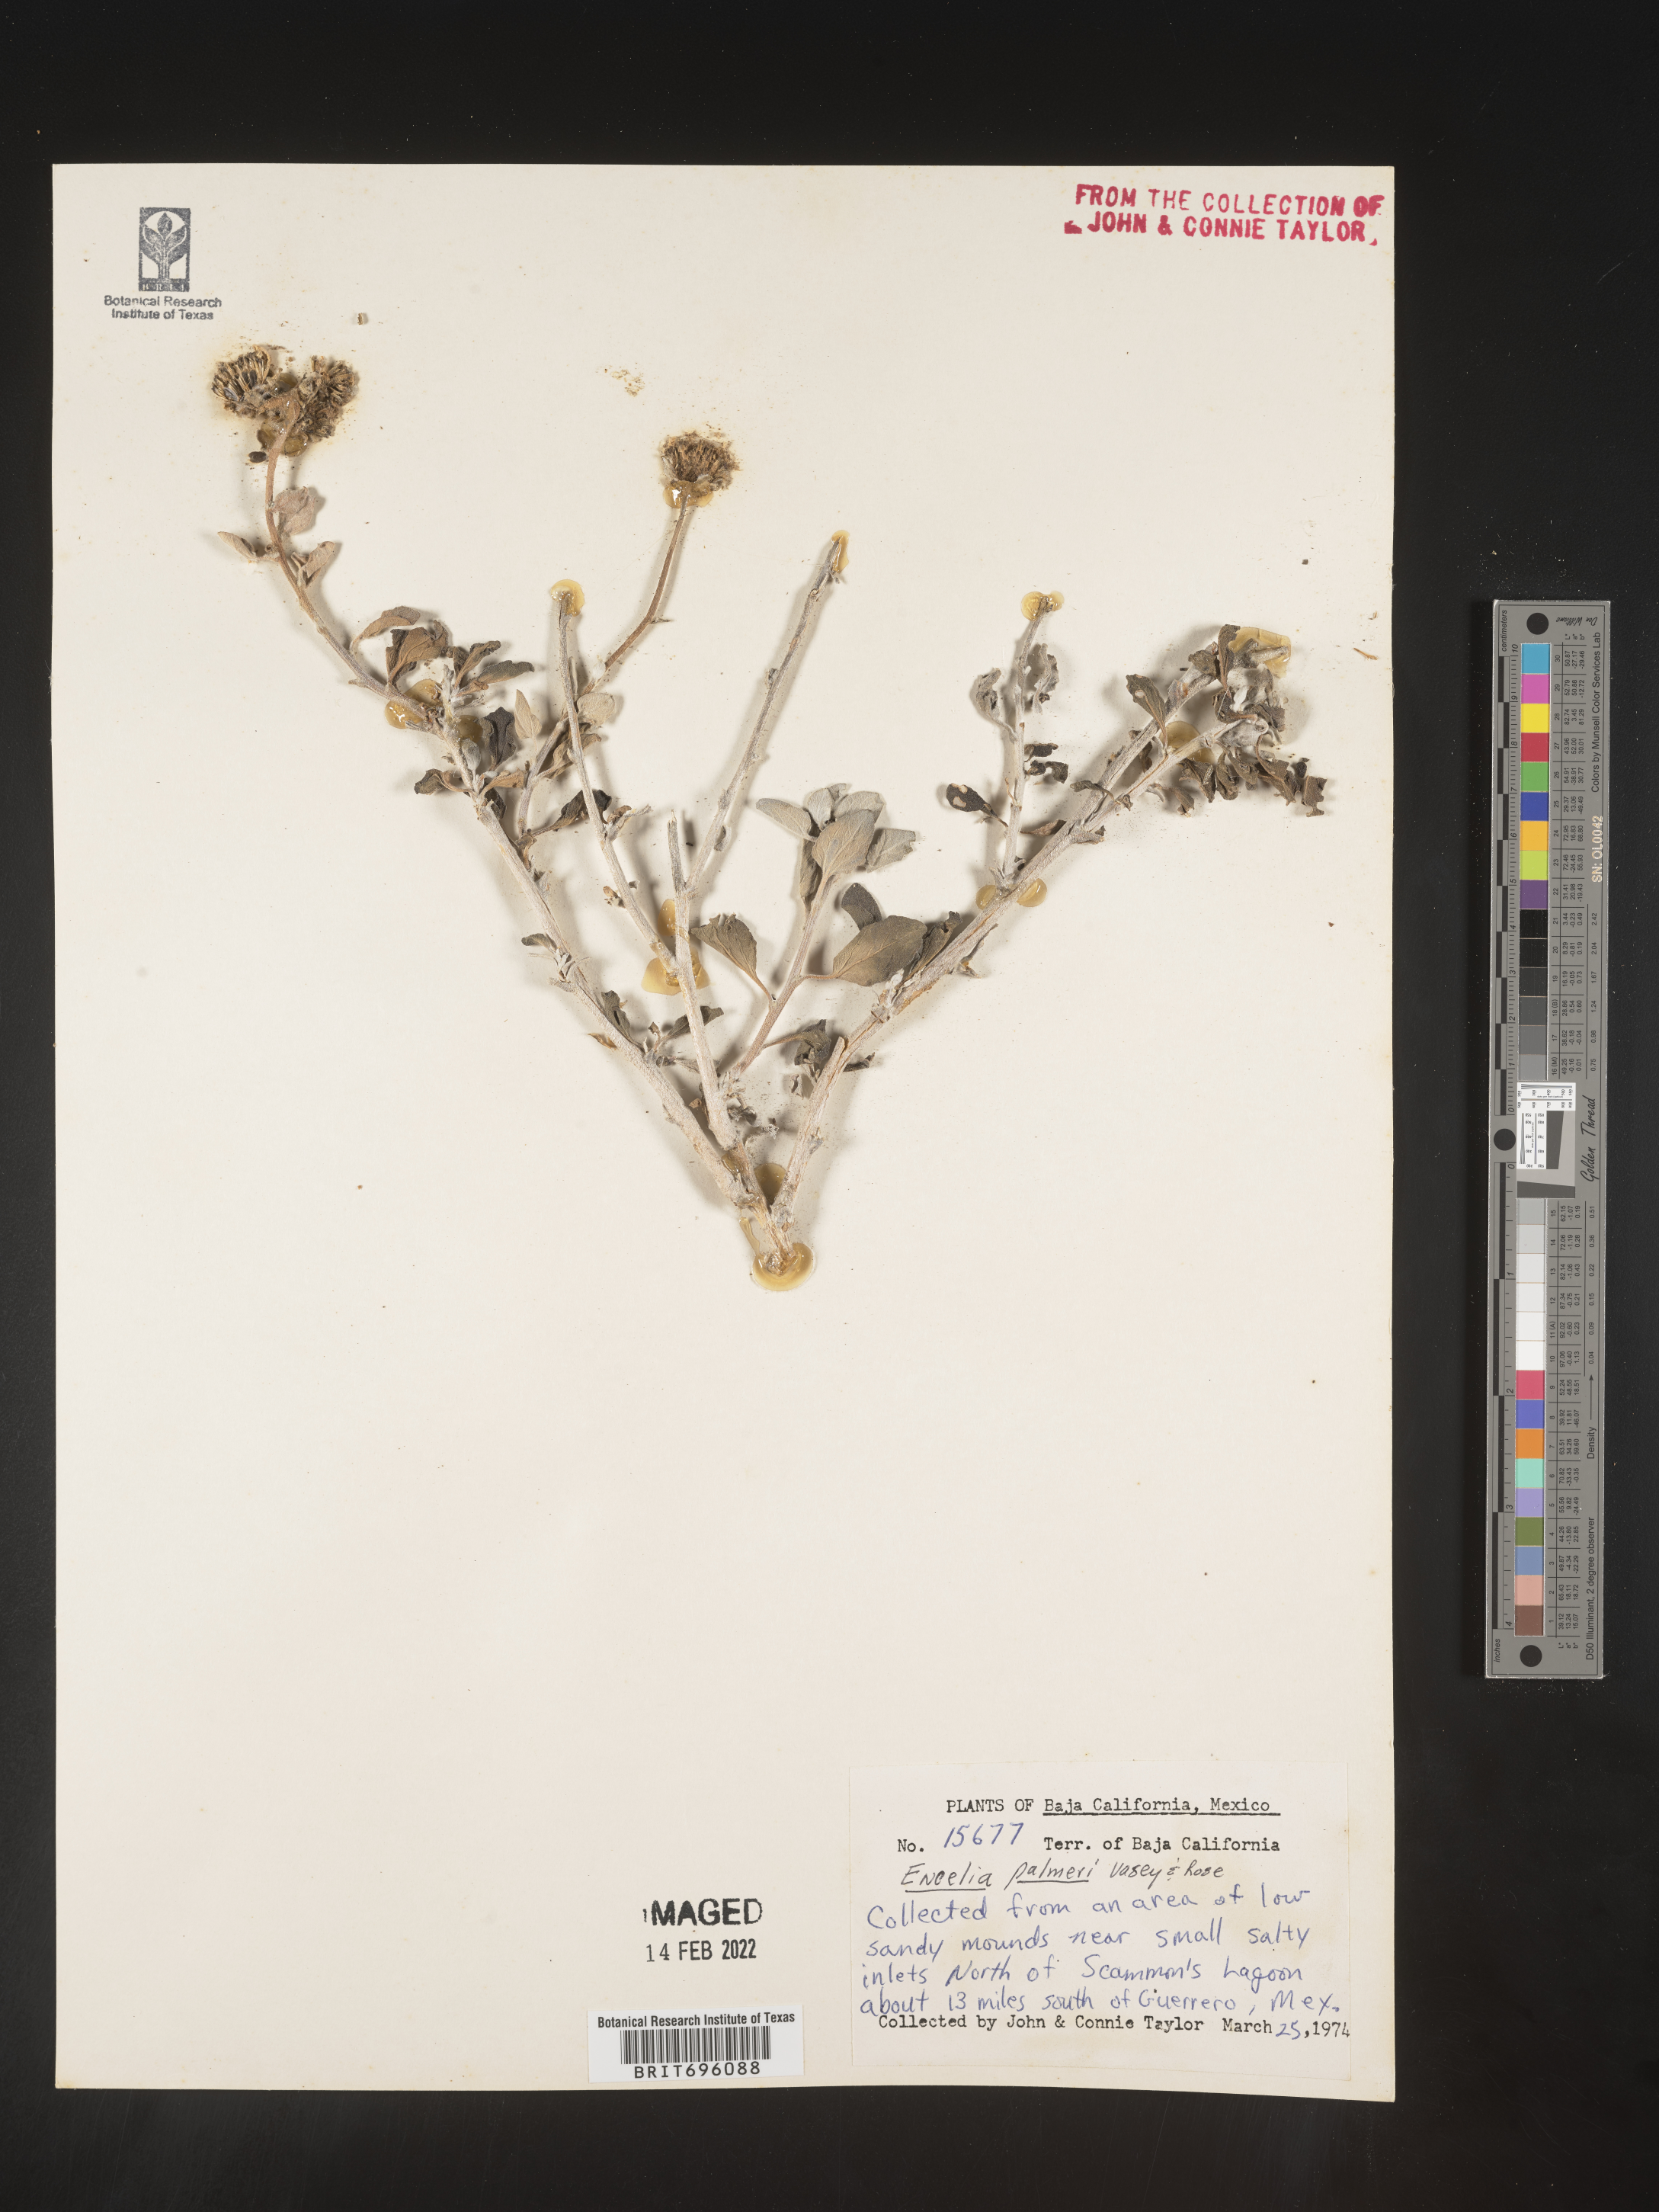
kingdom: Plantae
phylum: Tracheophyta
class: Magnoliopsida
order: Asterales
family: Asteraceae
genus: Encelia
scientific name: Encelia
